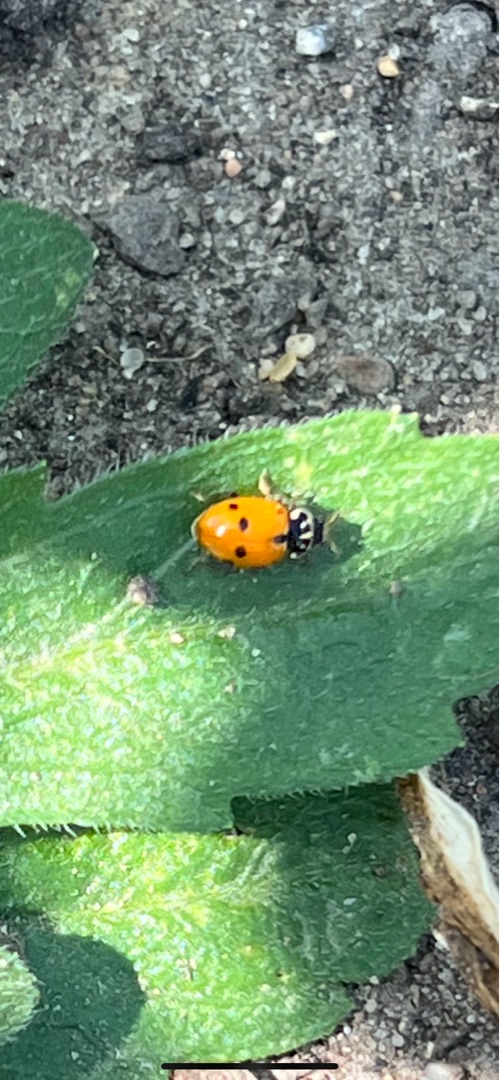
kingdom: Animalia
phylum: Arthropoda
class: Insecta
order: Coleoptera
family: Coccinellidae
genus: Hippodamia
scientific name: Hippodamia variegata
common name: Adonis' mariehøne
